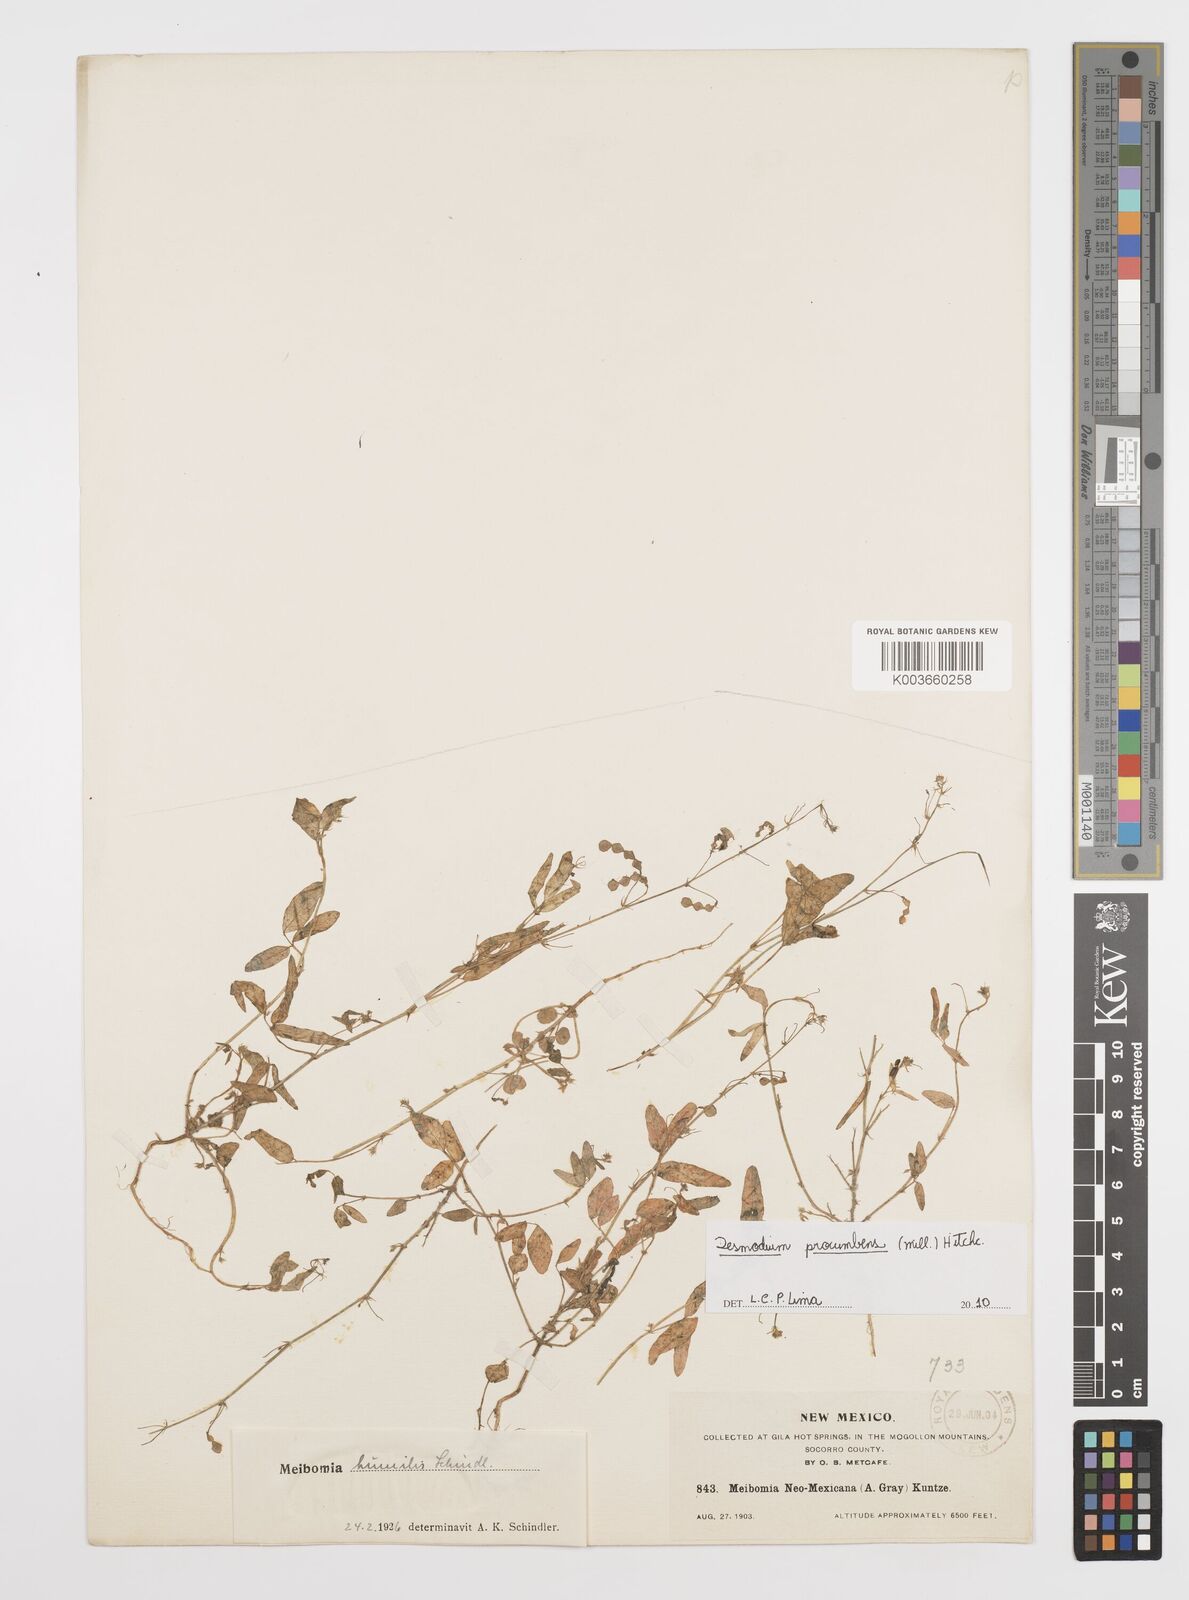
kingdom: Plantae
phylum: Tracheophyta
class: Magnoliopsida
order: Fabales
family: Fabaceae
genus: Desmodium
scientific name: Desmodium procumbens
